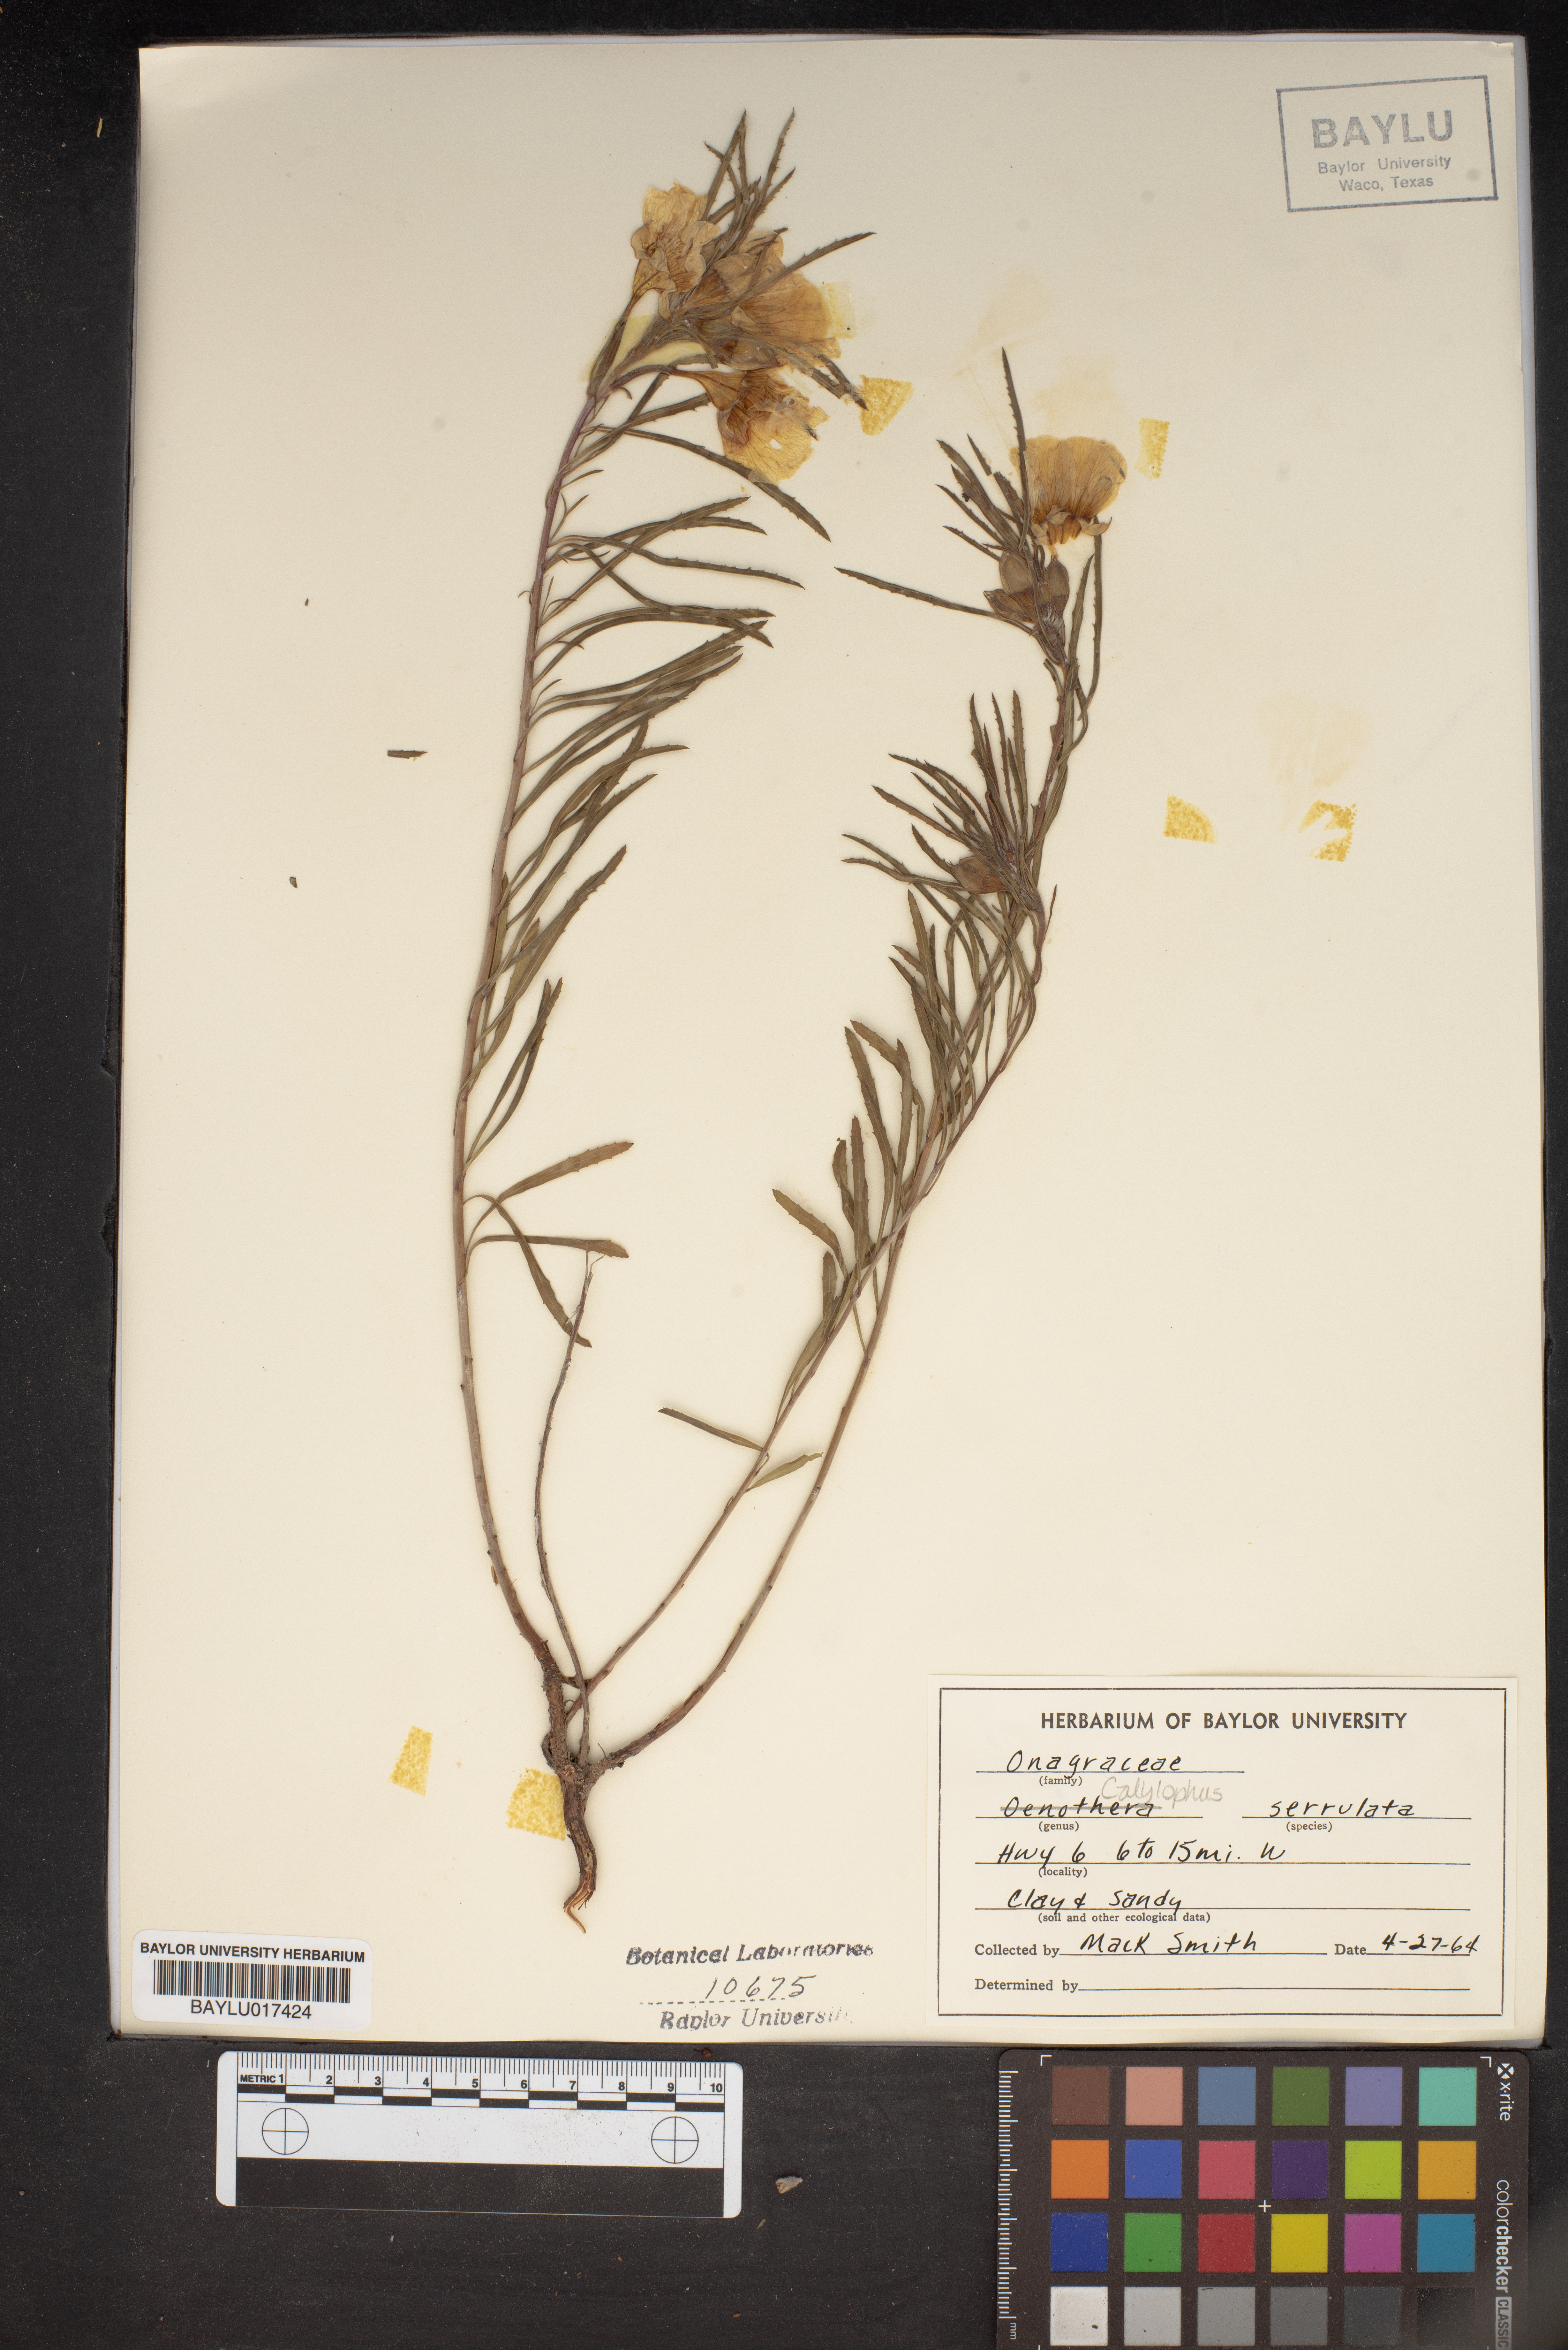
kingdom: Plantae
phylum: Tracheophyta
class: Magnoliopsida
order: Myrtales
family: Onagraceae
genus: Oenothera
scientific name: Oenothera serrulata
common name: Half-shrub calylophus
